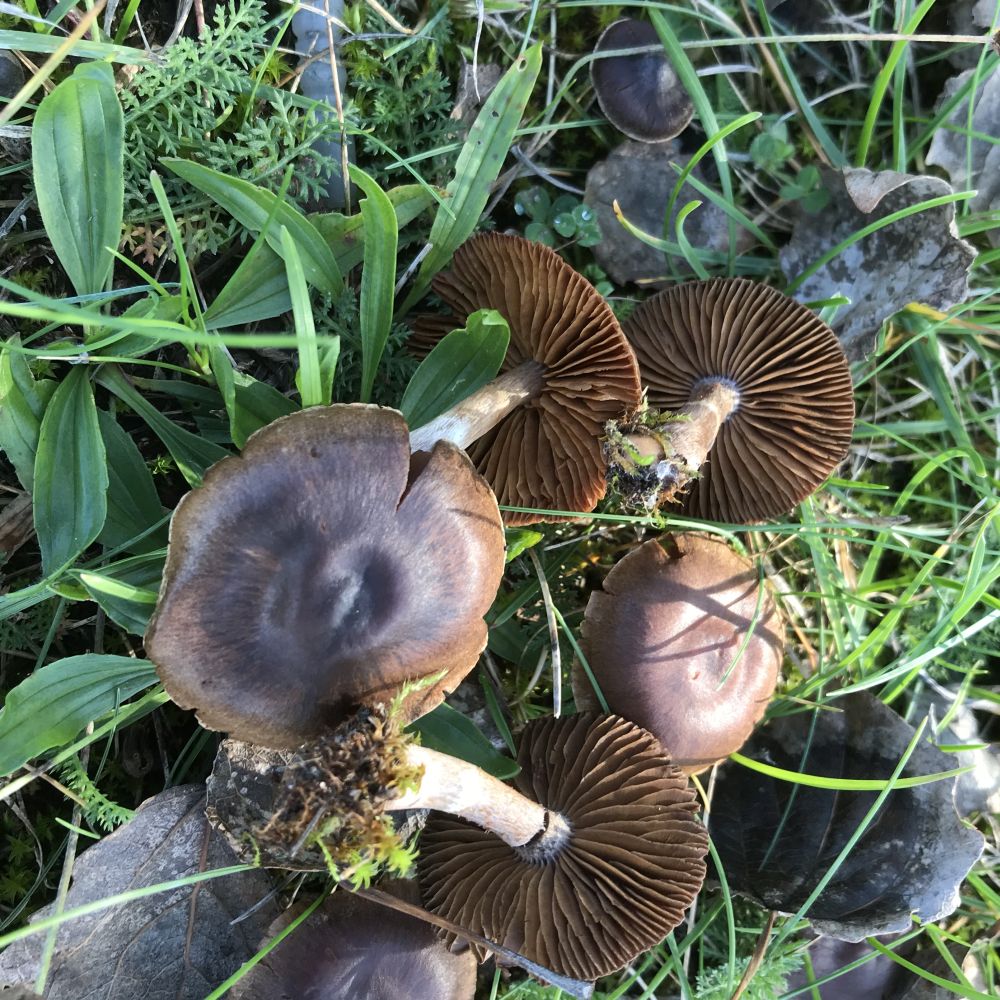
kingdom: Fungi
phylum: Basidiomycota
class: Agaricomycetes
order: Agaricales
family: Cortinariaceae
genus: Cortinarius
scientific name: Cortinarius
